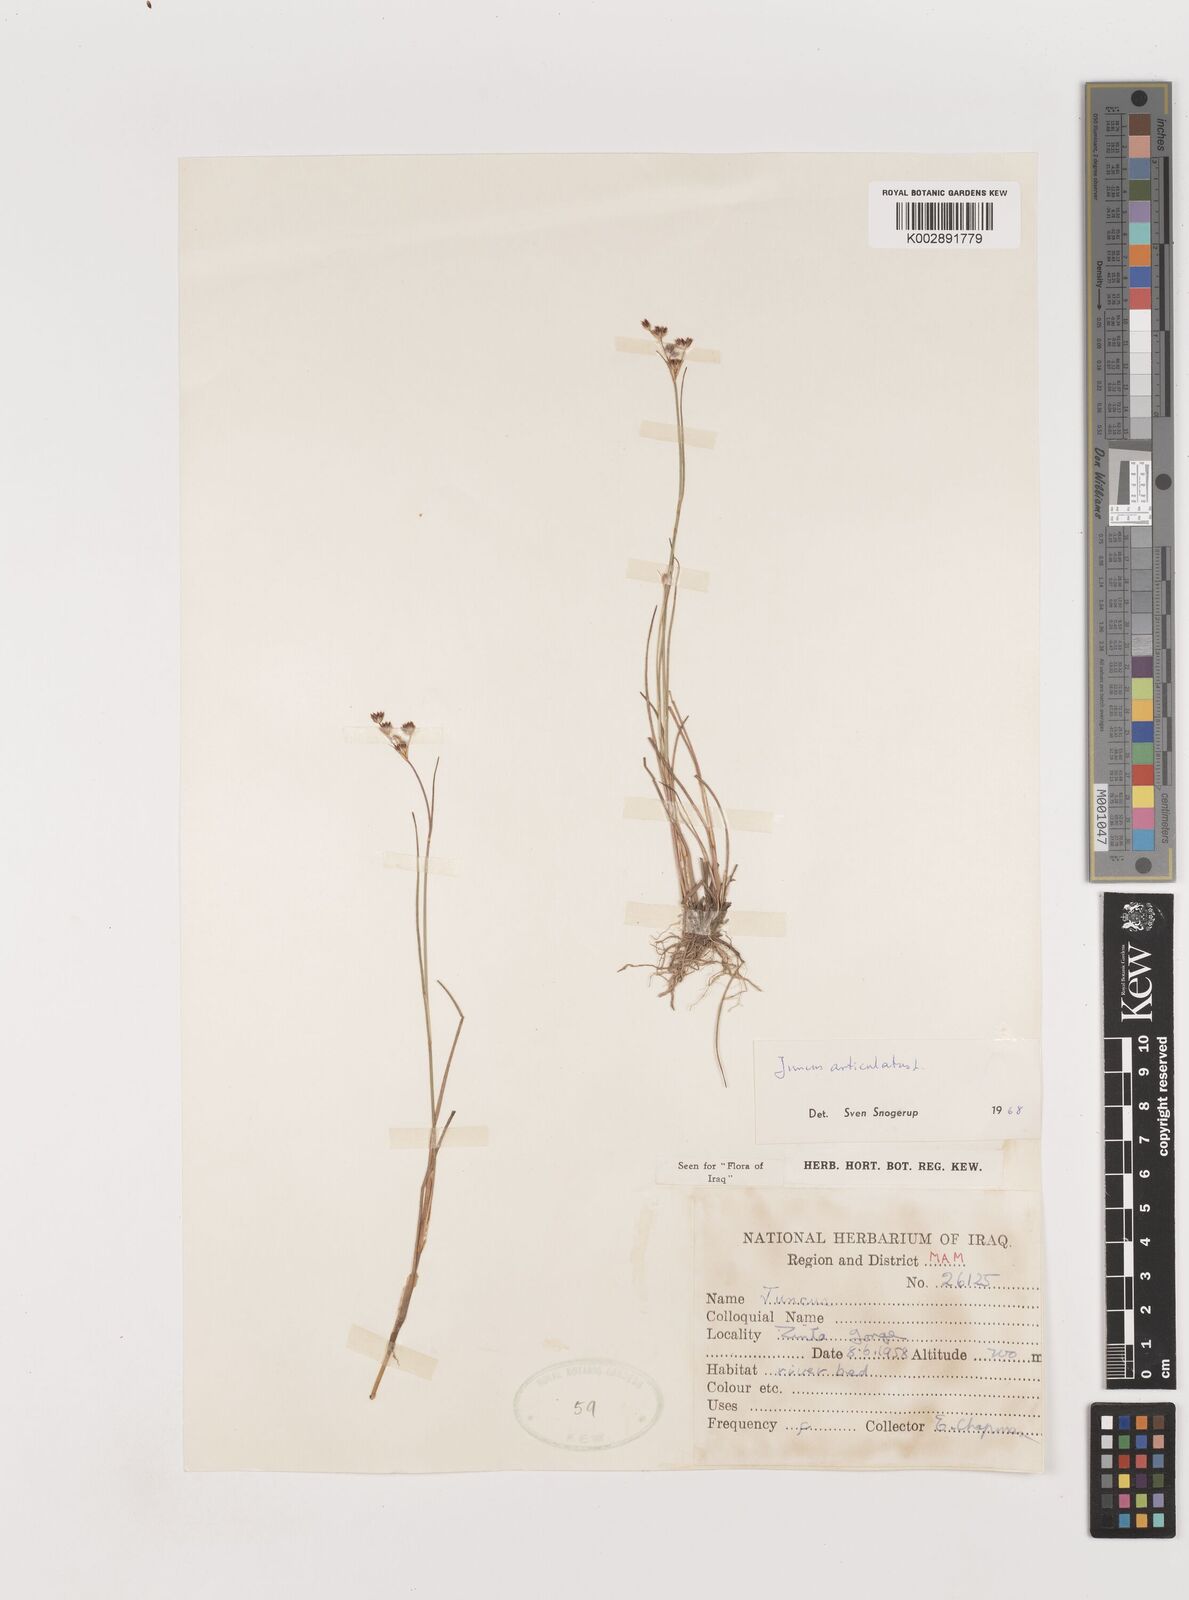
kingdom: Plantae
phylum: Tracheophyta
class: Liliopsida
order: Poales
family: Juncaceae
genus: Juncus
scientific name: Juncus articulatus
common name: Jointed rush
